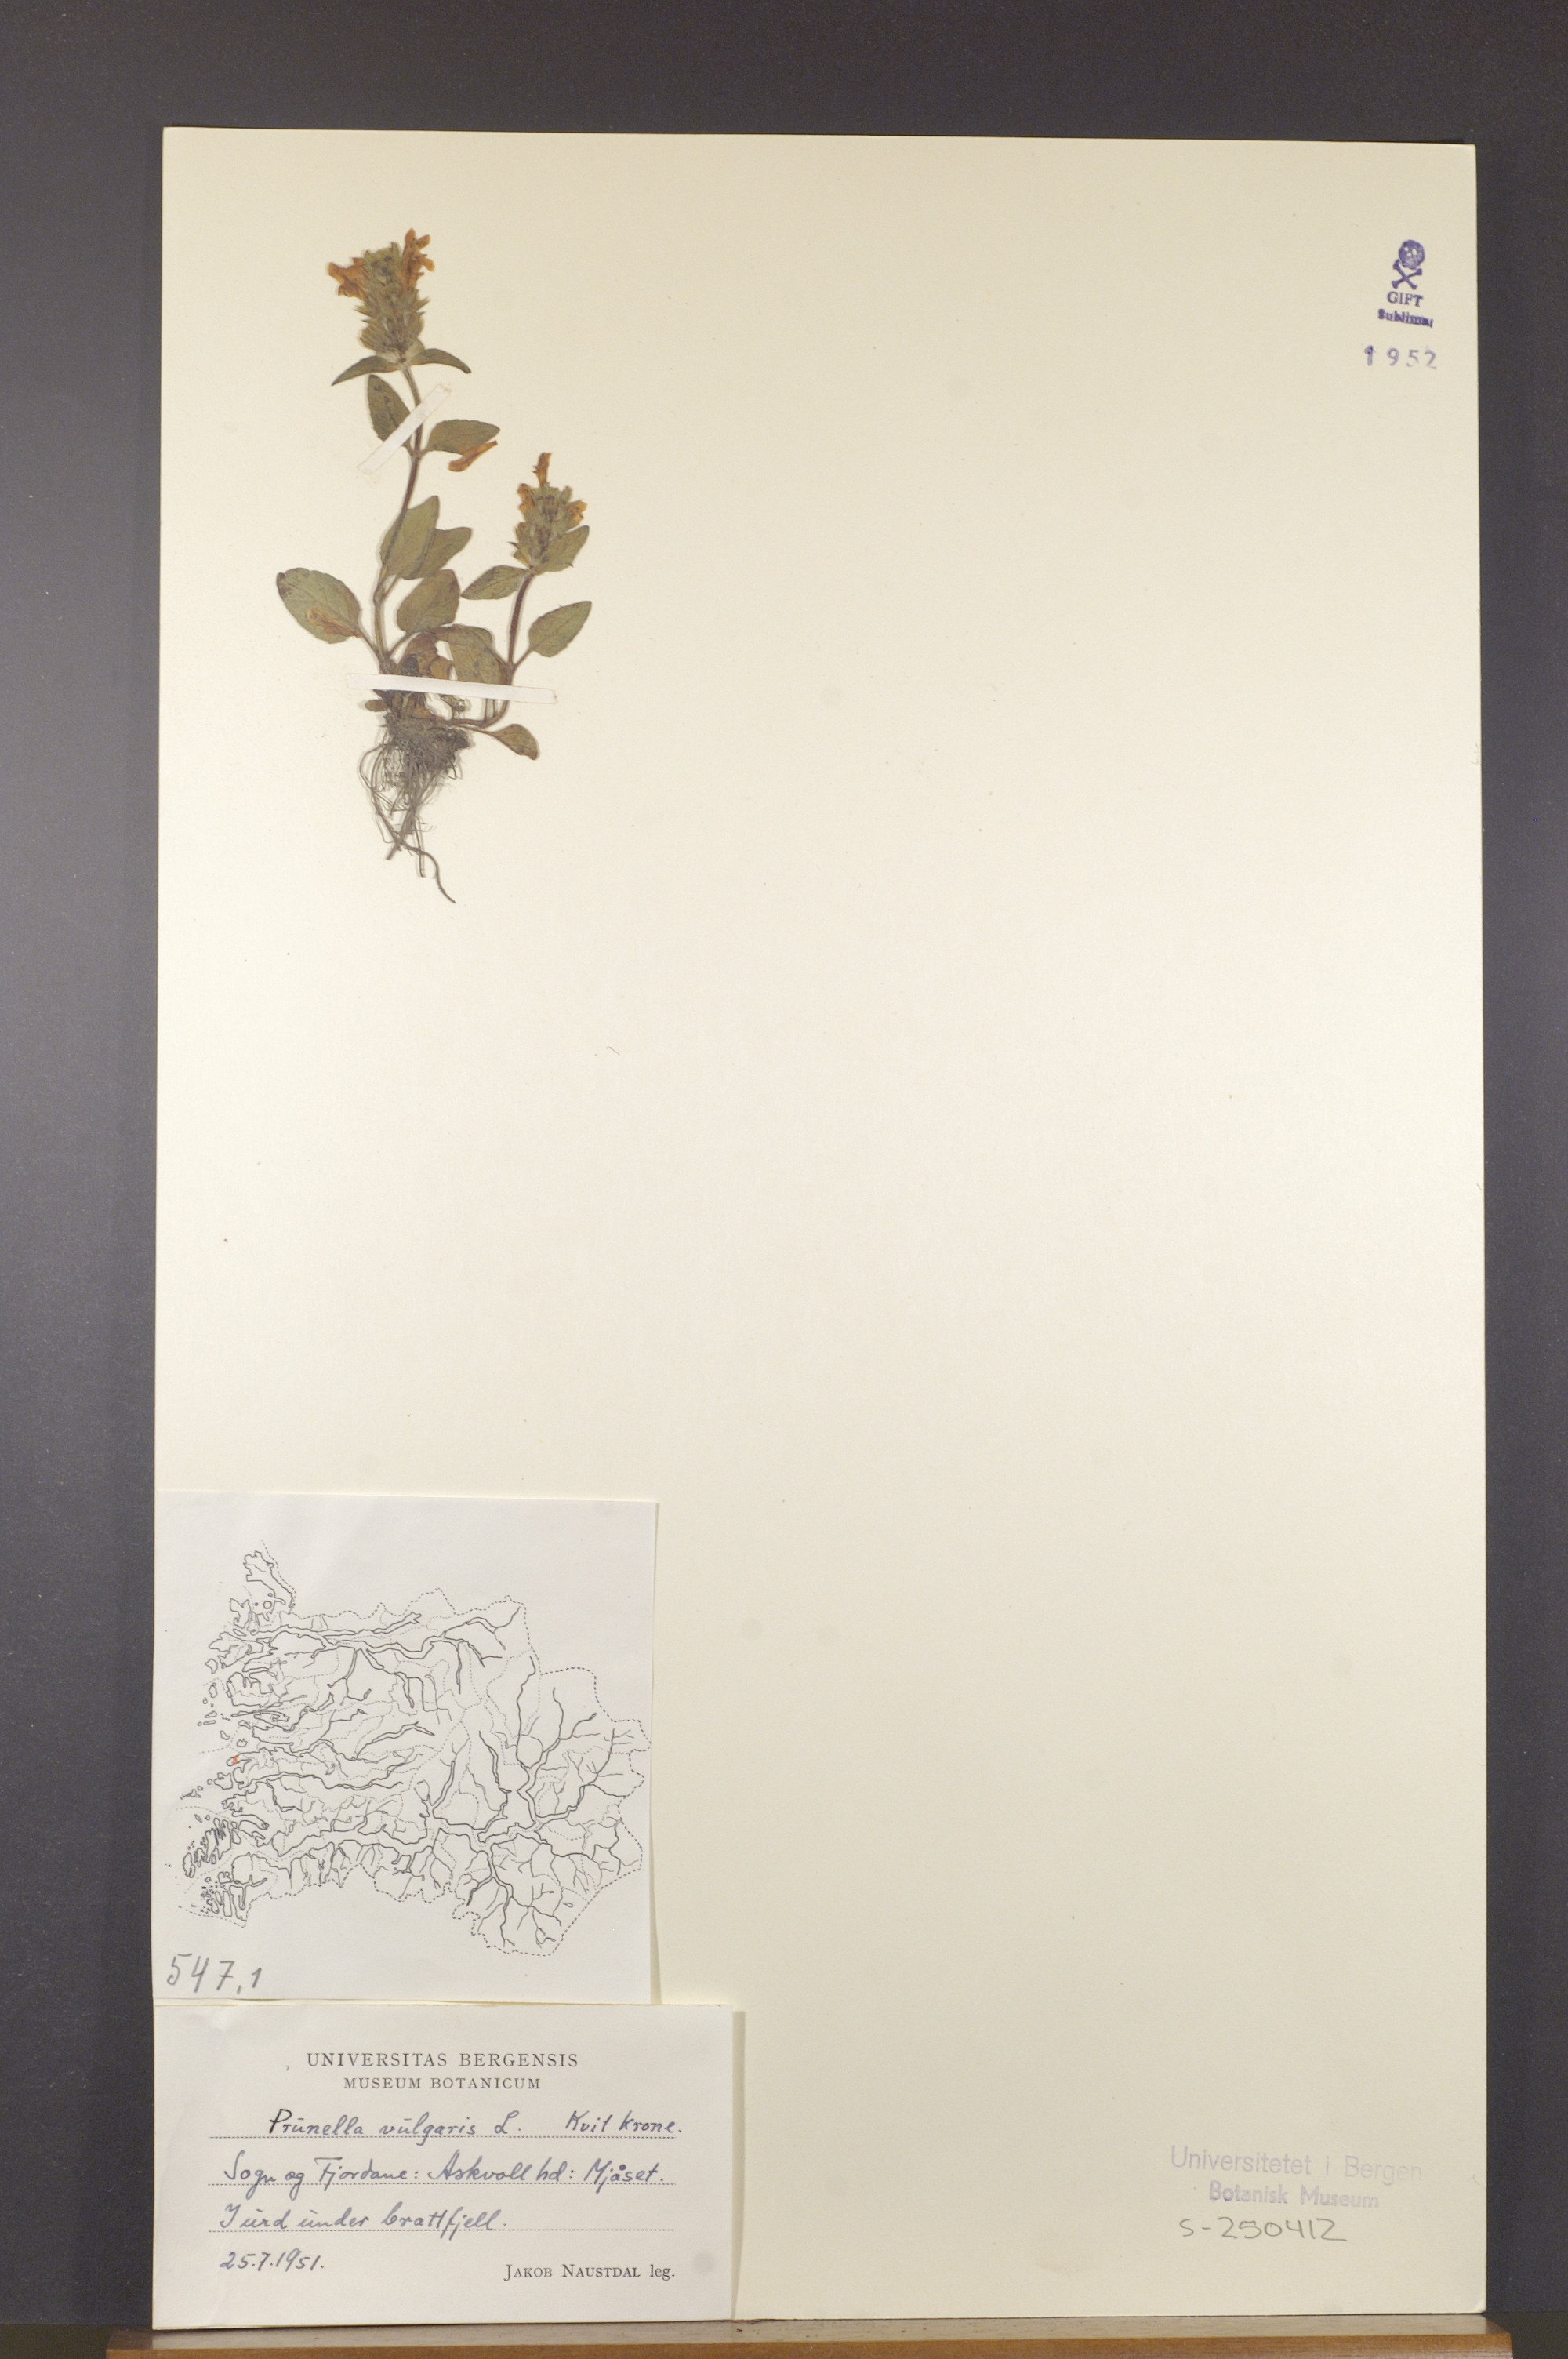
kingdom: Plantae
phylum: Tracheophyta
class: Magnoliopsida
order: Lamiales
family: Lamiaceae
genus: Prunella
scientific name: Prunella vulgaris
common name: Heal-all
